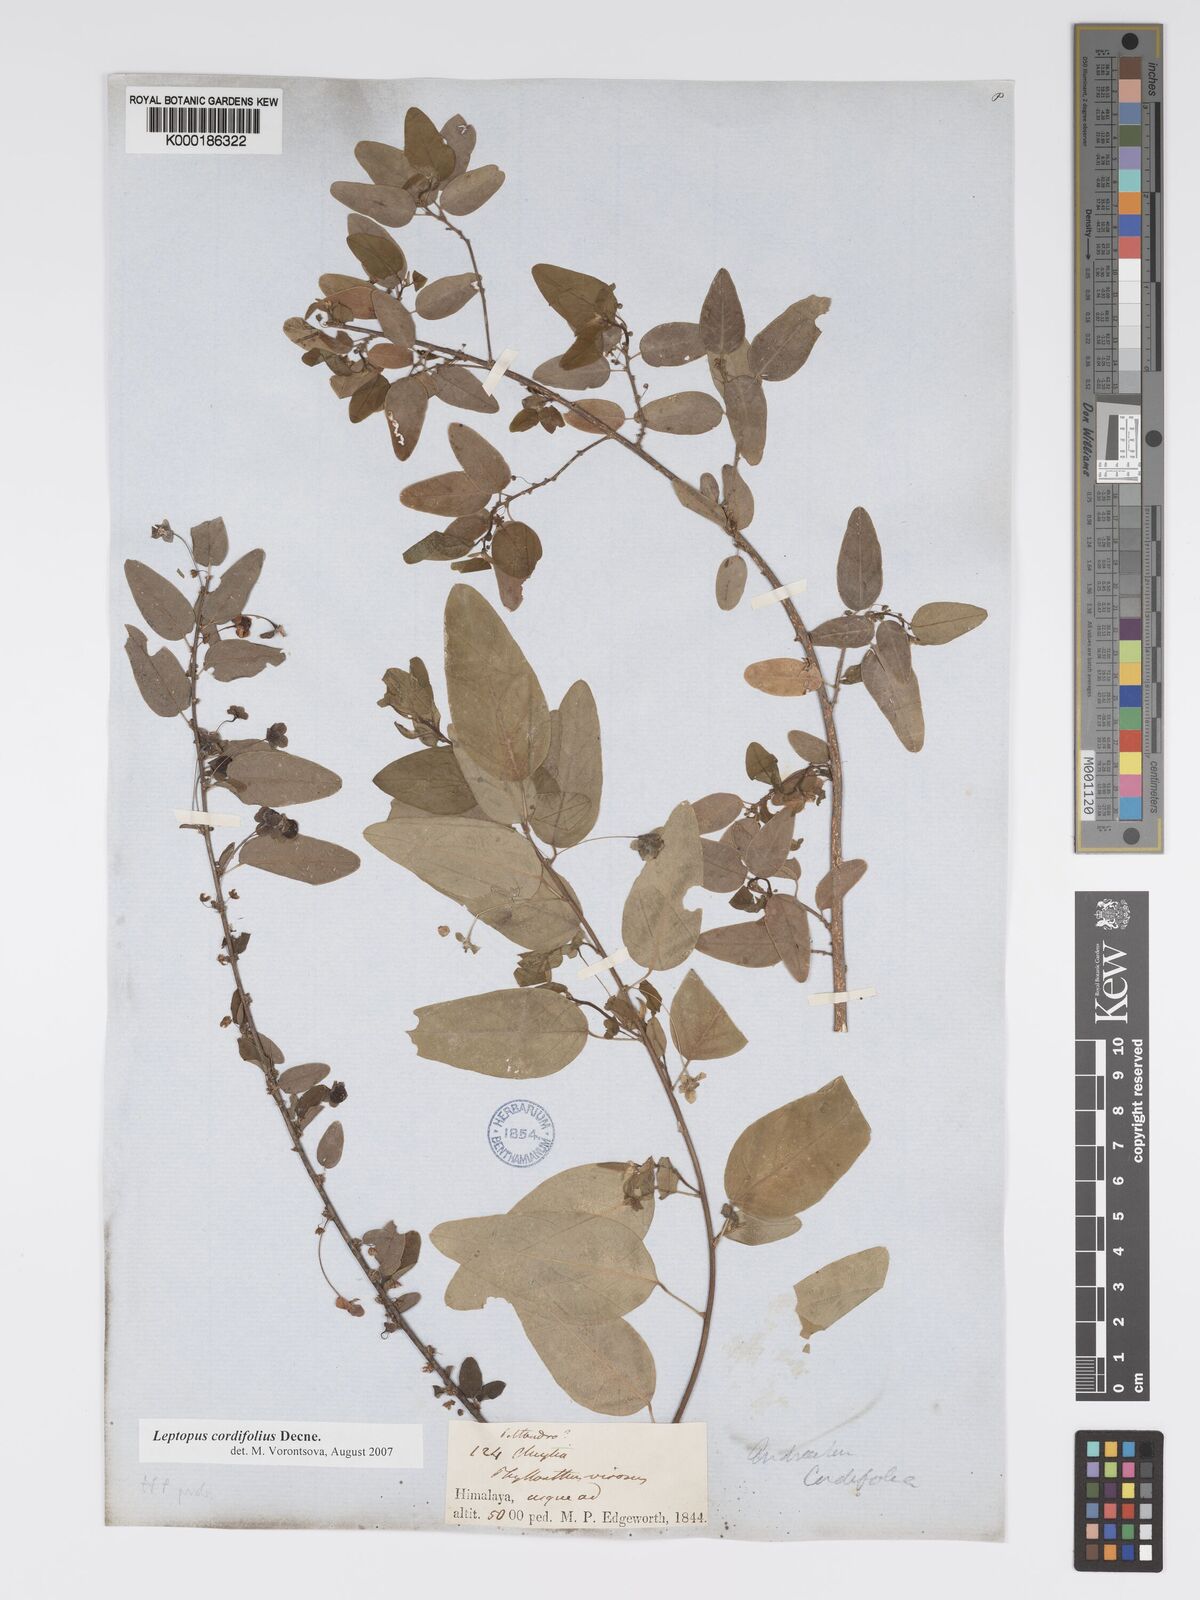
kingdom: Plantae
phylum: Tracheophyta
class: Magnoliopsida
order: Malpighiales
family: Phyllanthaceae
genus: Leptopus
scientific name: Leptopus cordifolius
